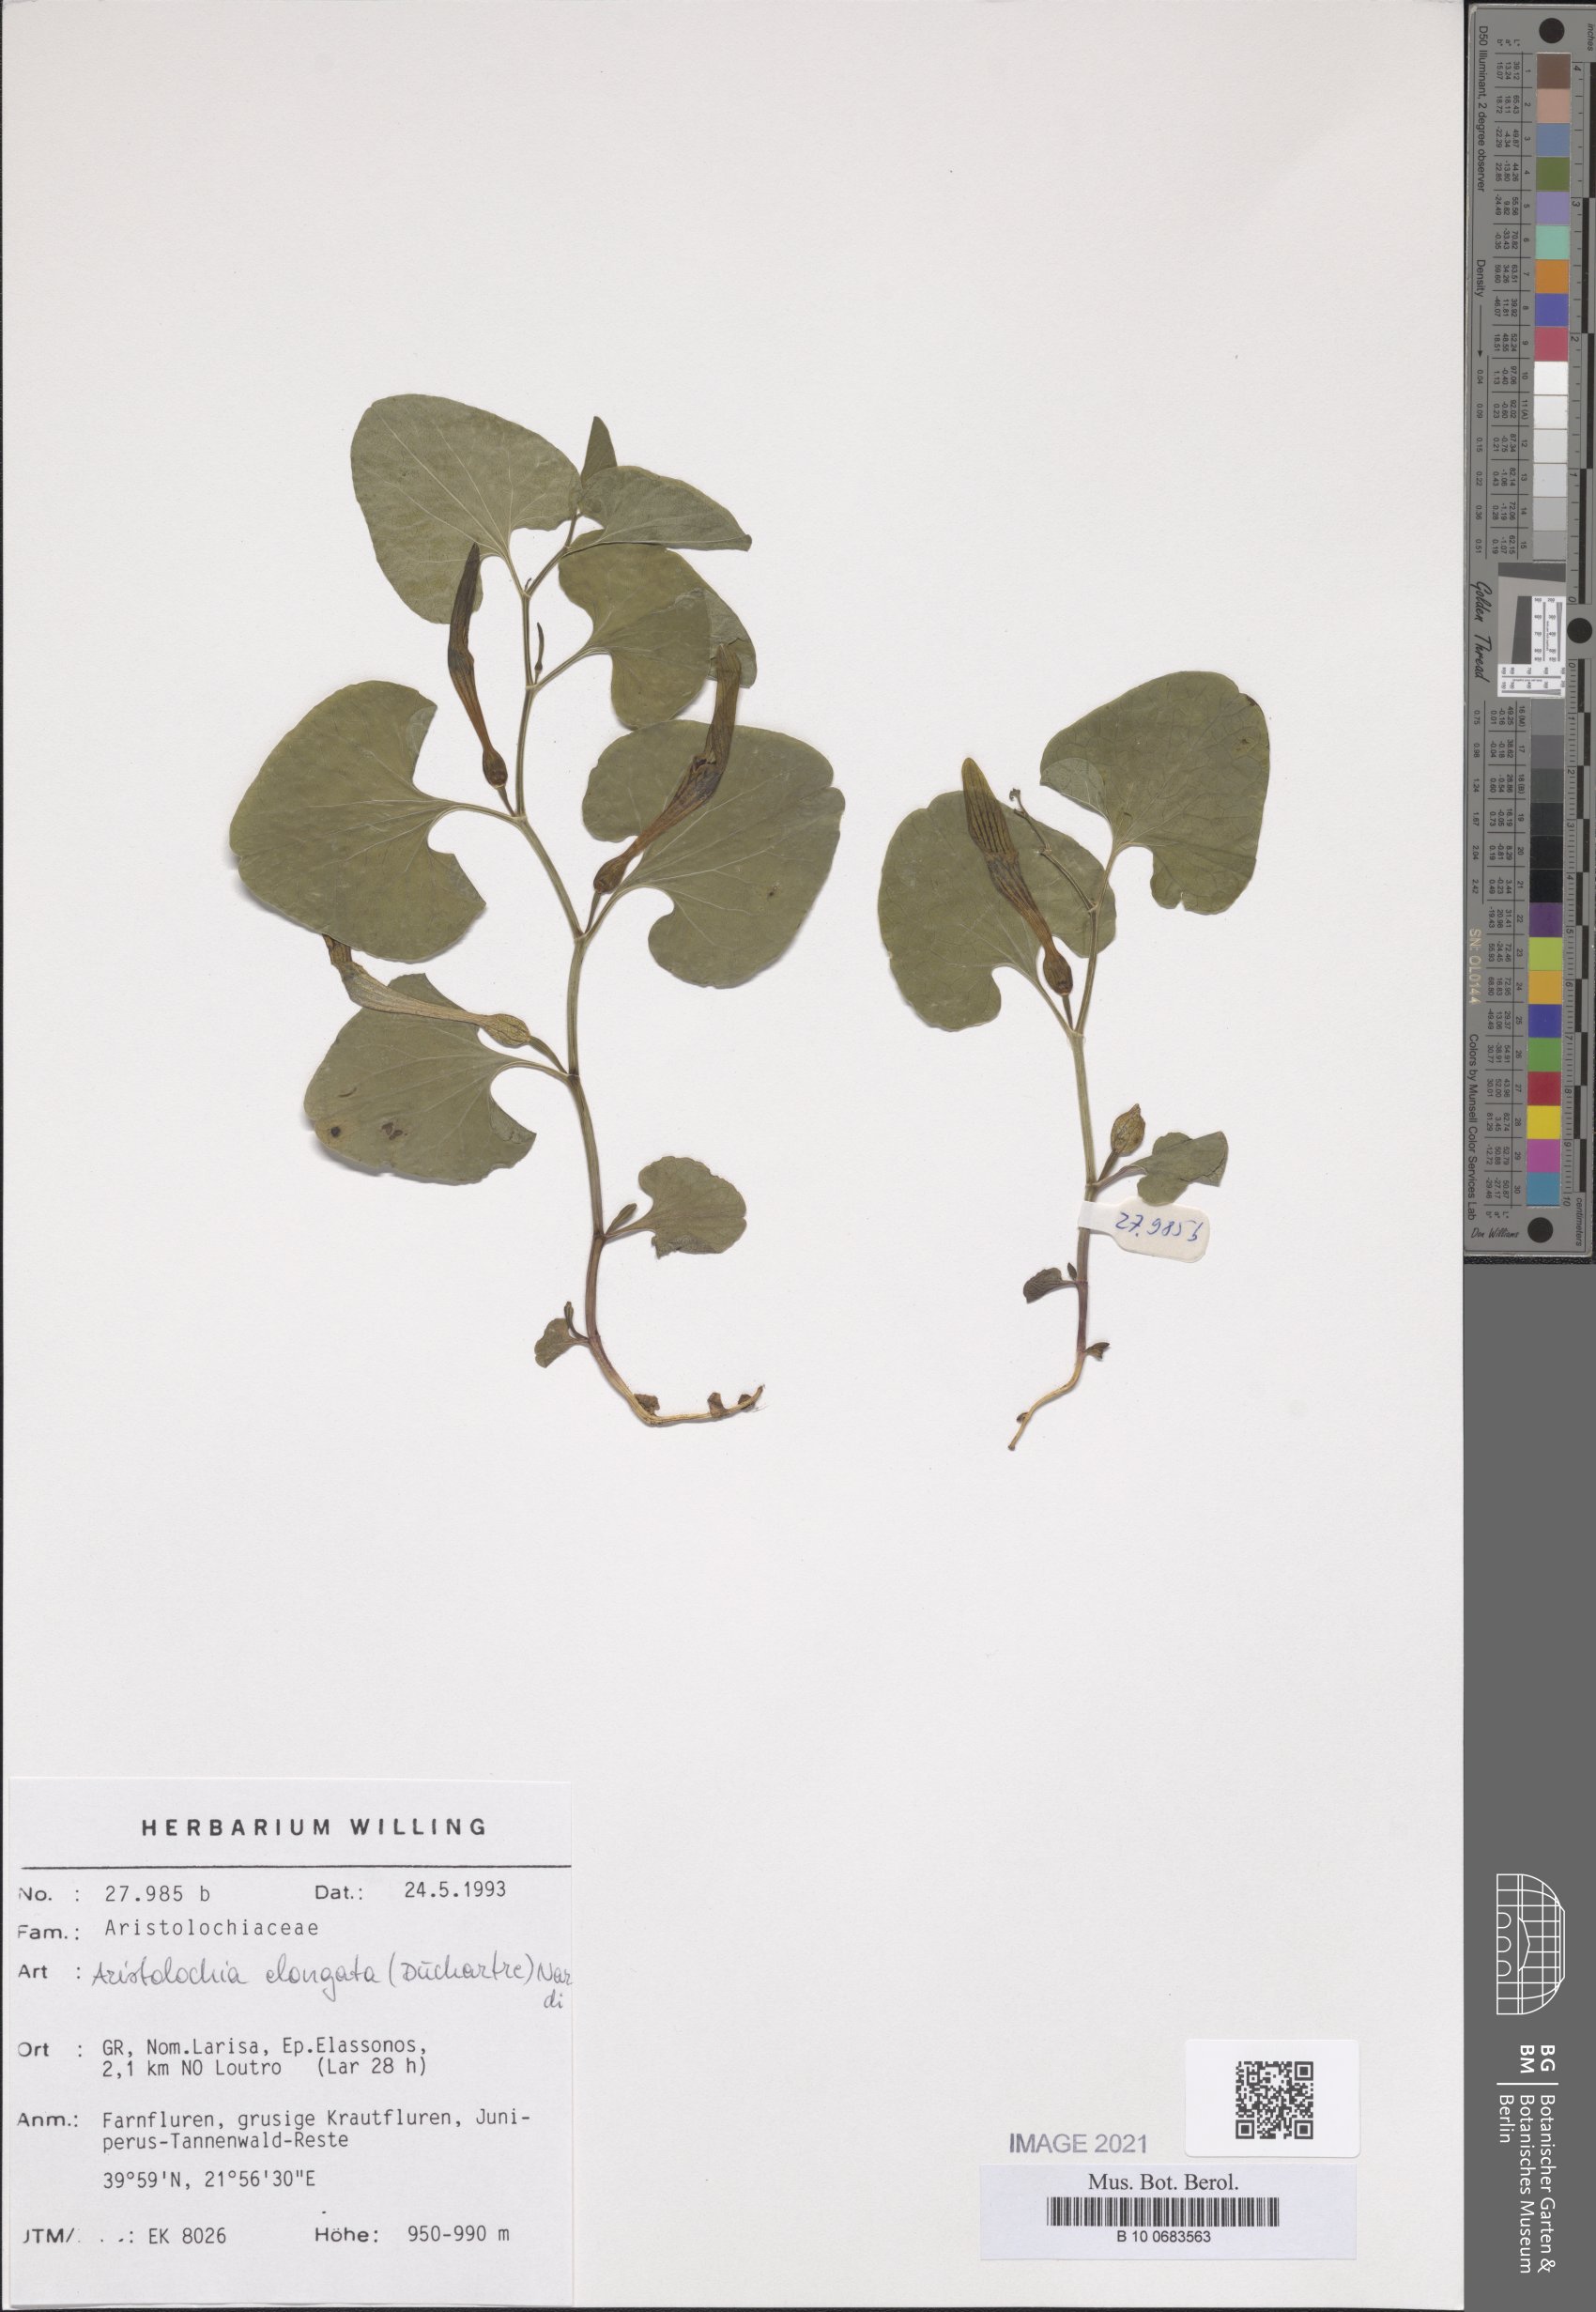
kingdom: Plantae
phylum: Tracheophyta
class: Magnoliopsida
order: Piperales
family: Aristolochiaceae
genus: Aristolochia
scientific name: Aristolochia pallida
